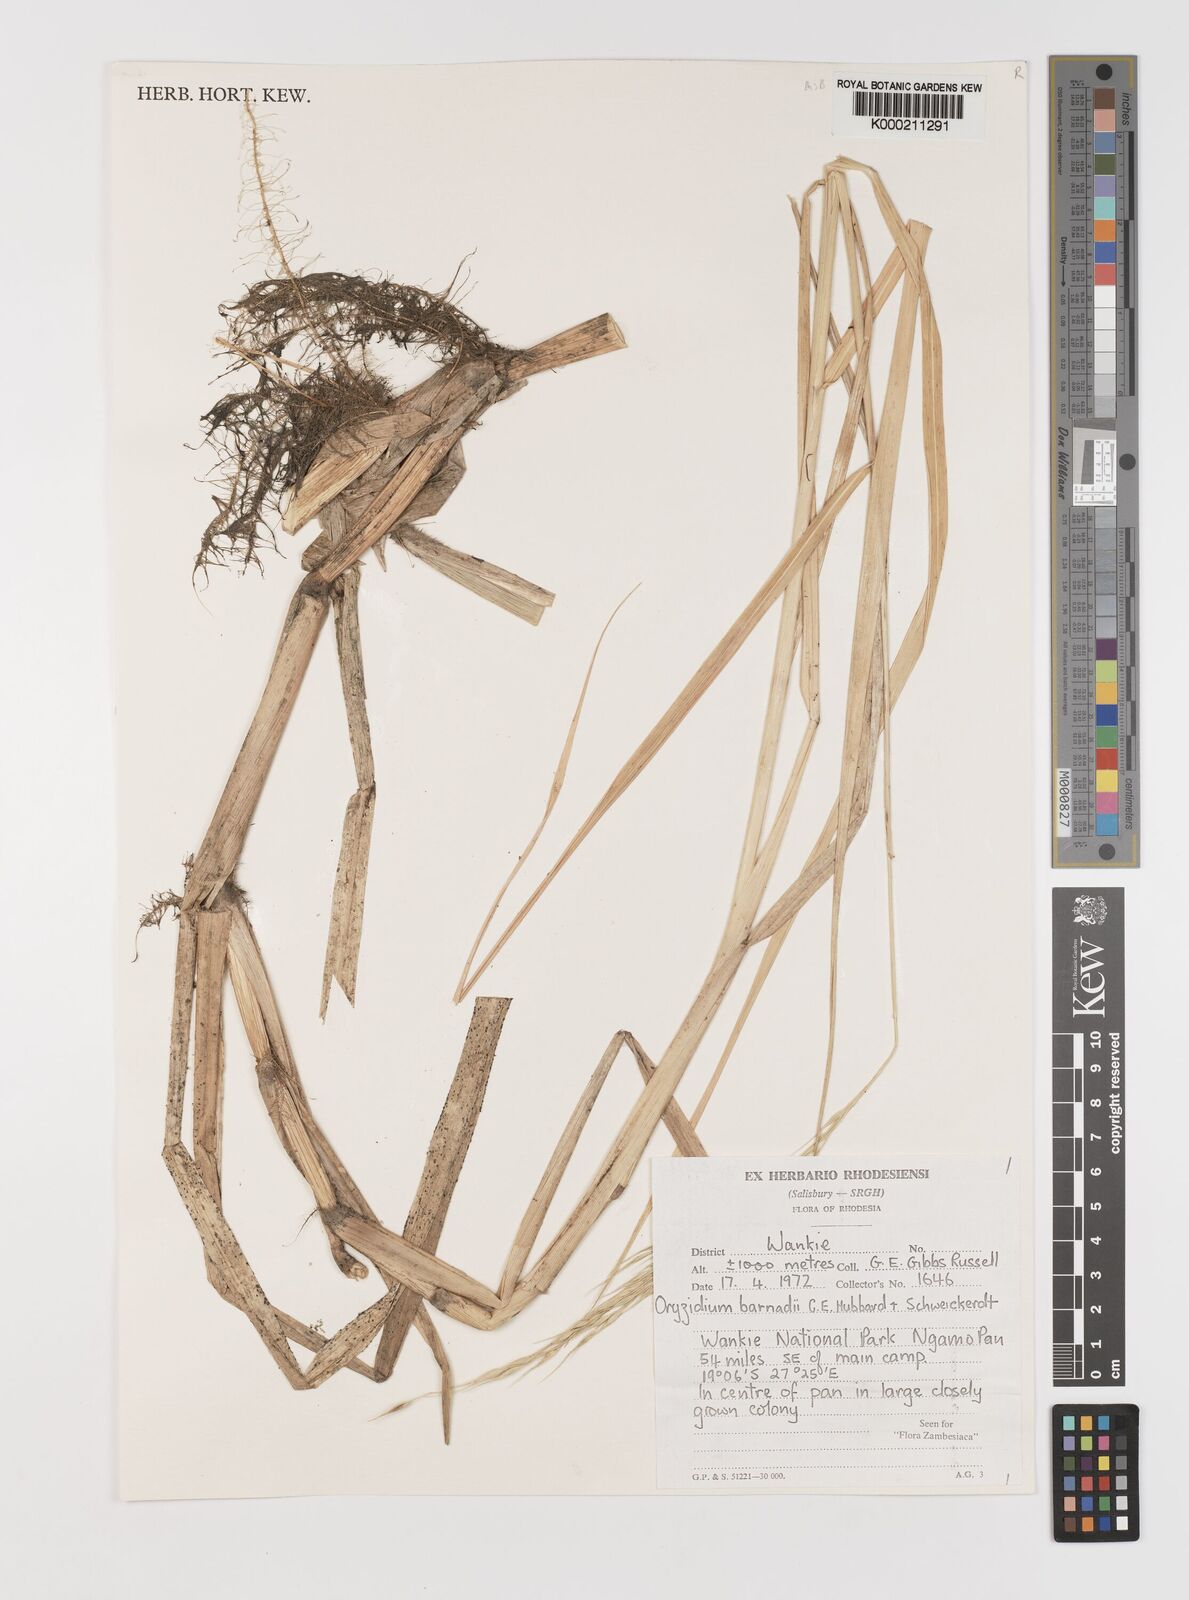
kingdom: Plantae
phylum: Tracheophyta
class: Liliopsida
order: Poales
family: Poaceae
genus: Oryzidium
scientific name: Oryzidium barnardii
